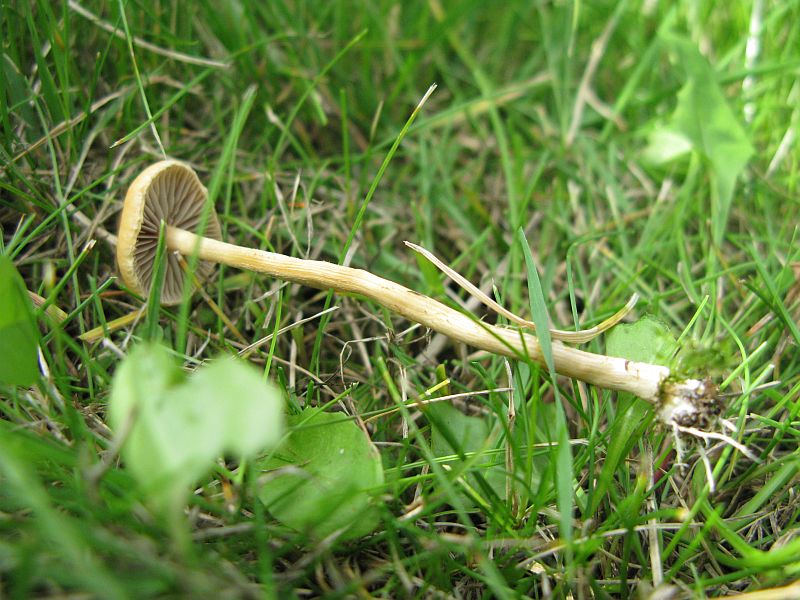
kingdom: Fungi
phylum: Basidiomycota
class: Agaricomycetes
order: Agaricales
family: Strophariaceae
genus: Agrocybe
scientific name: Agrocybe pediades
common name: almindelig agerhat
